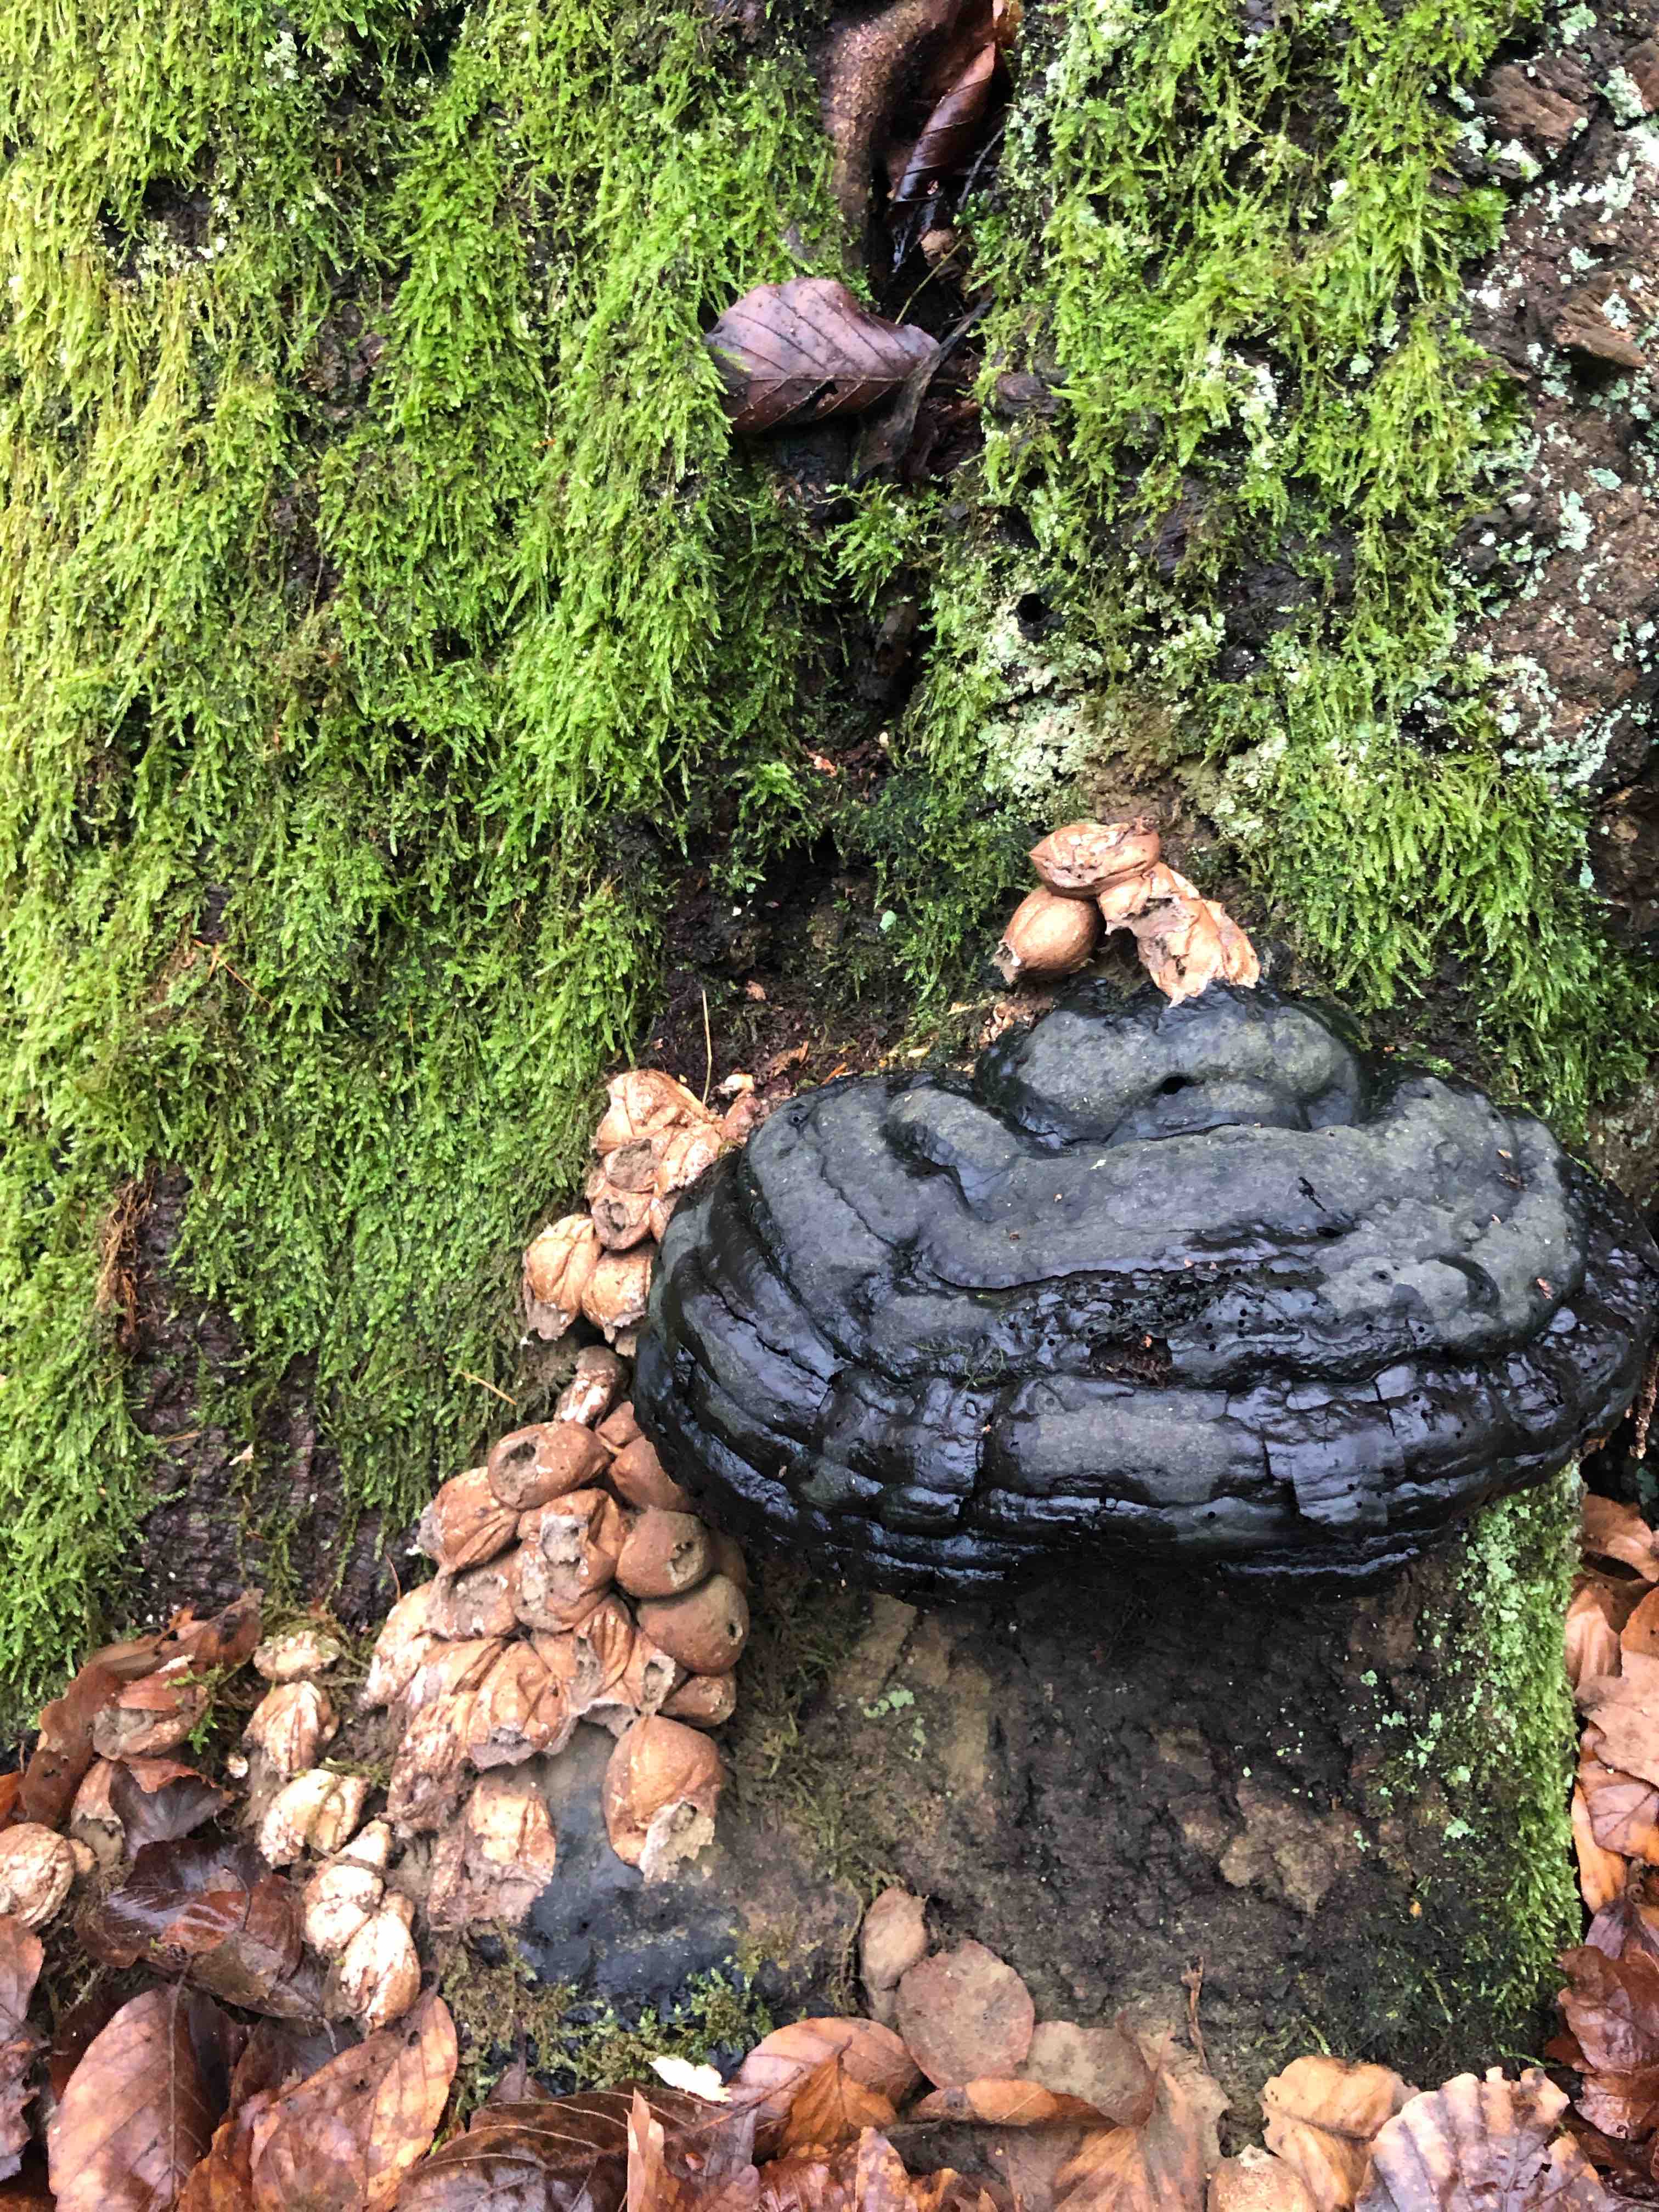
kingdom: Fungi
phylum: Basidiomycota
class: Agaricomycetes
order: Agaricales
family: Lycoperdaceae
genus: Apioperdon
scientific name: Apioperdon pyriforme
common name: pære-støvbold
